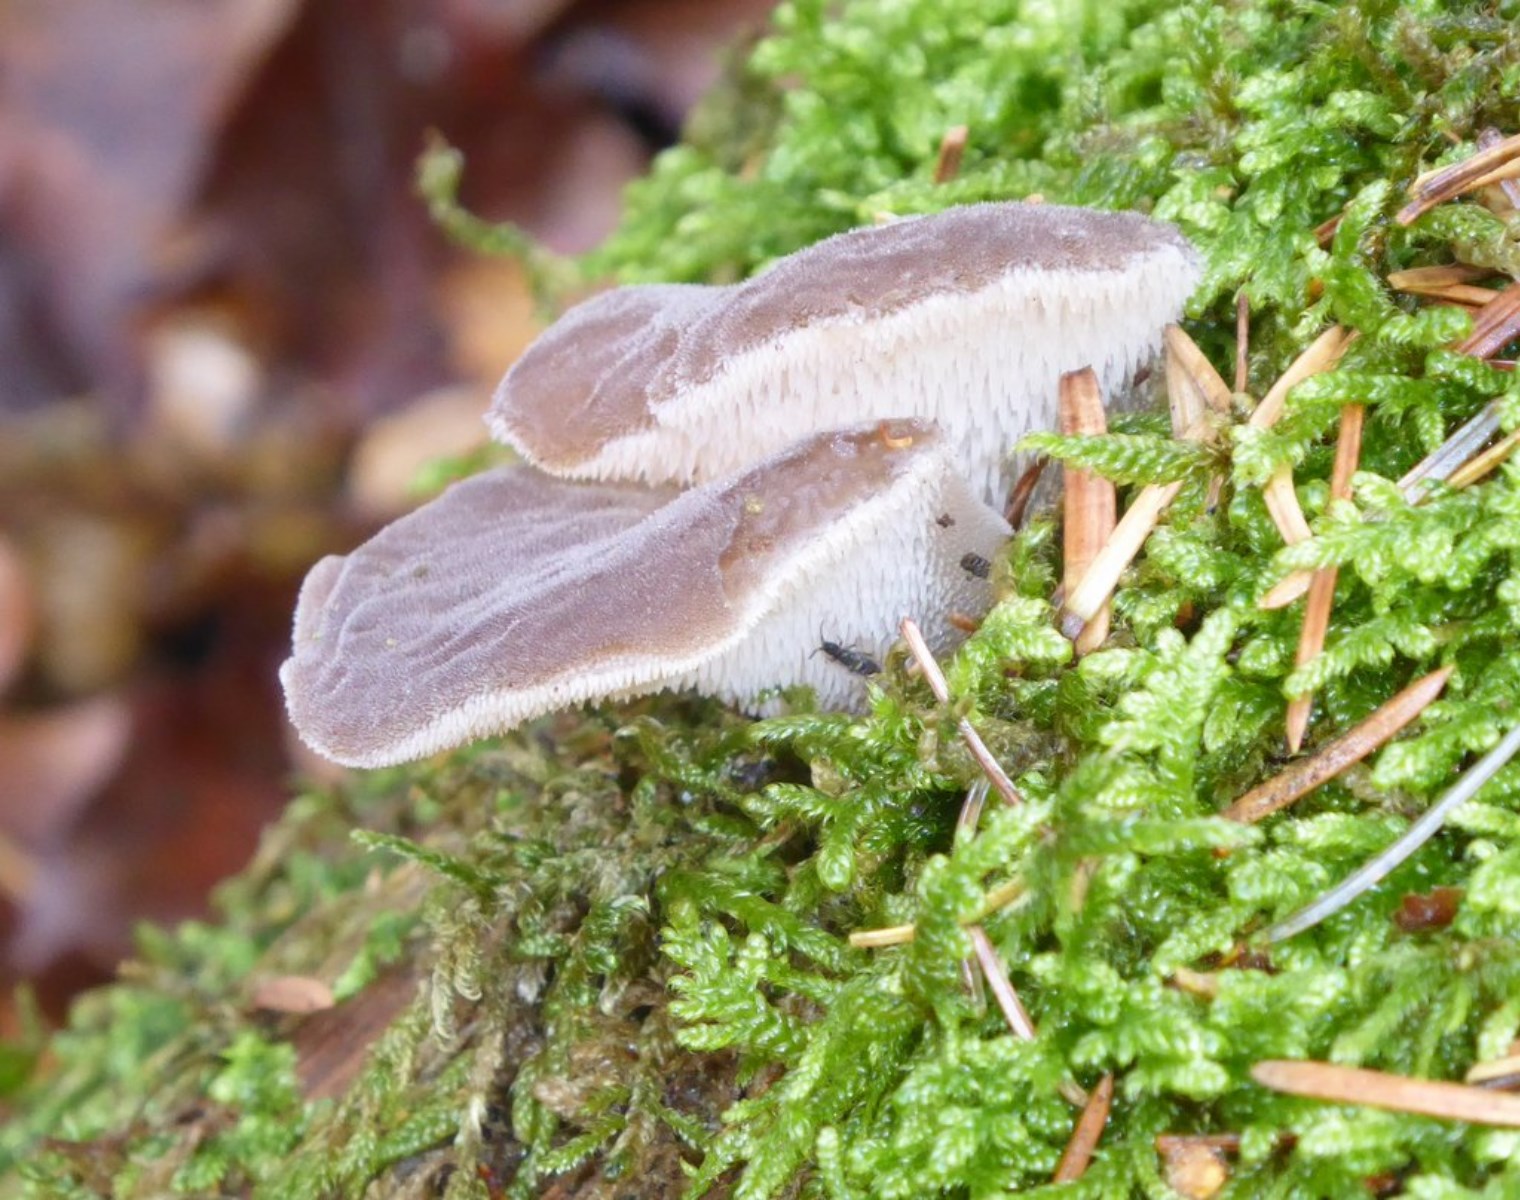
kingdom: Fungi
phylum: Basidiomycota
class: Agaricomycetes
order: Auriculariales
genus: Pseudohydnum
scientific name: Pseudohydnum gelatinosum
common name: bævretand
